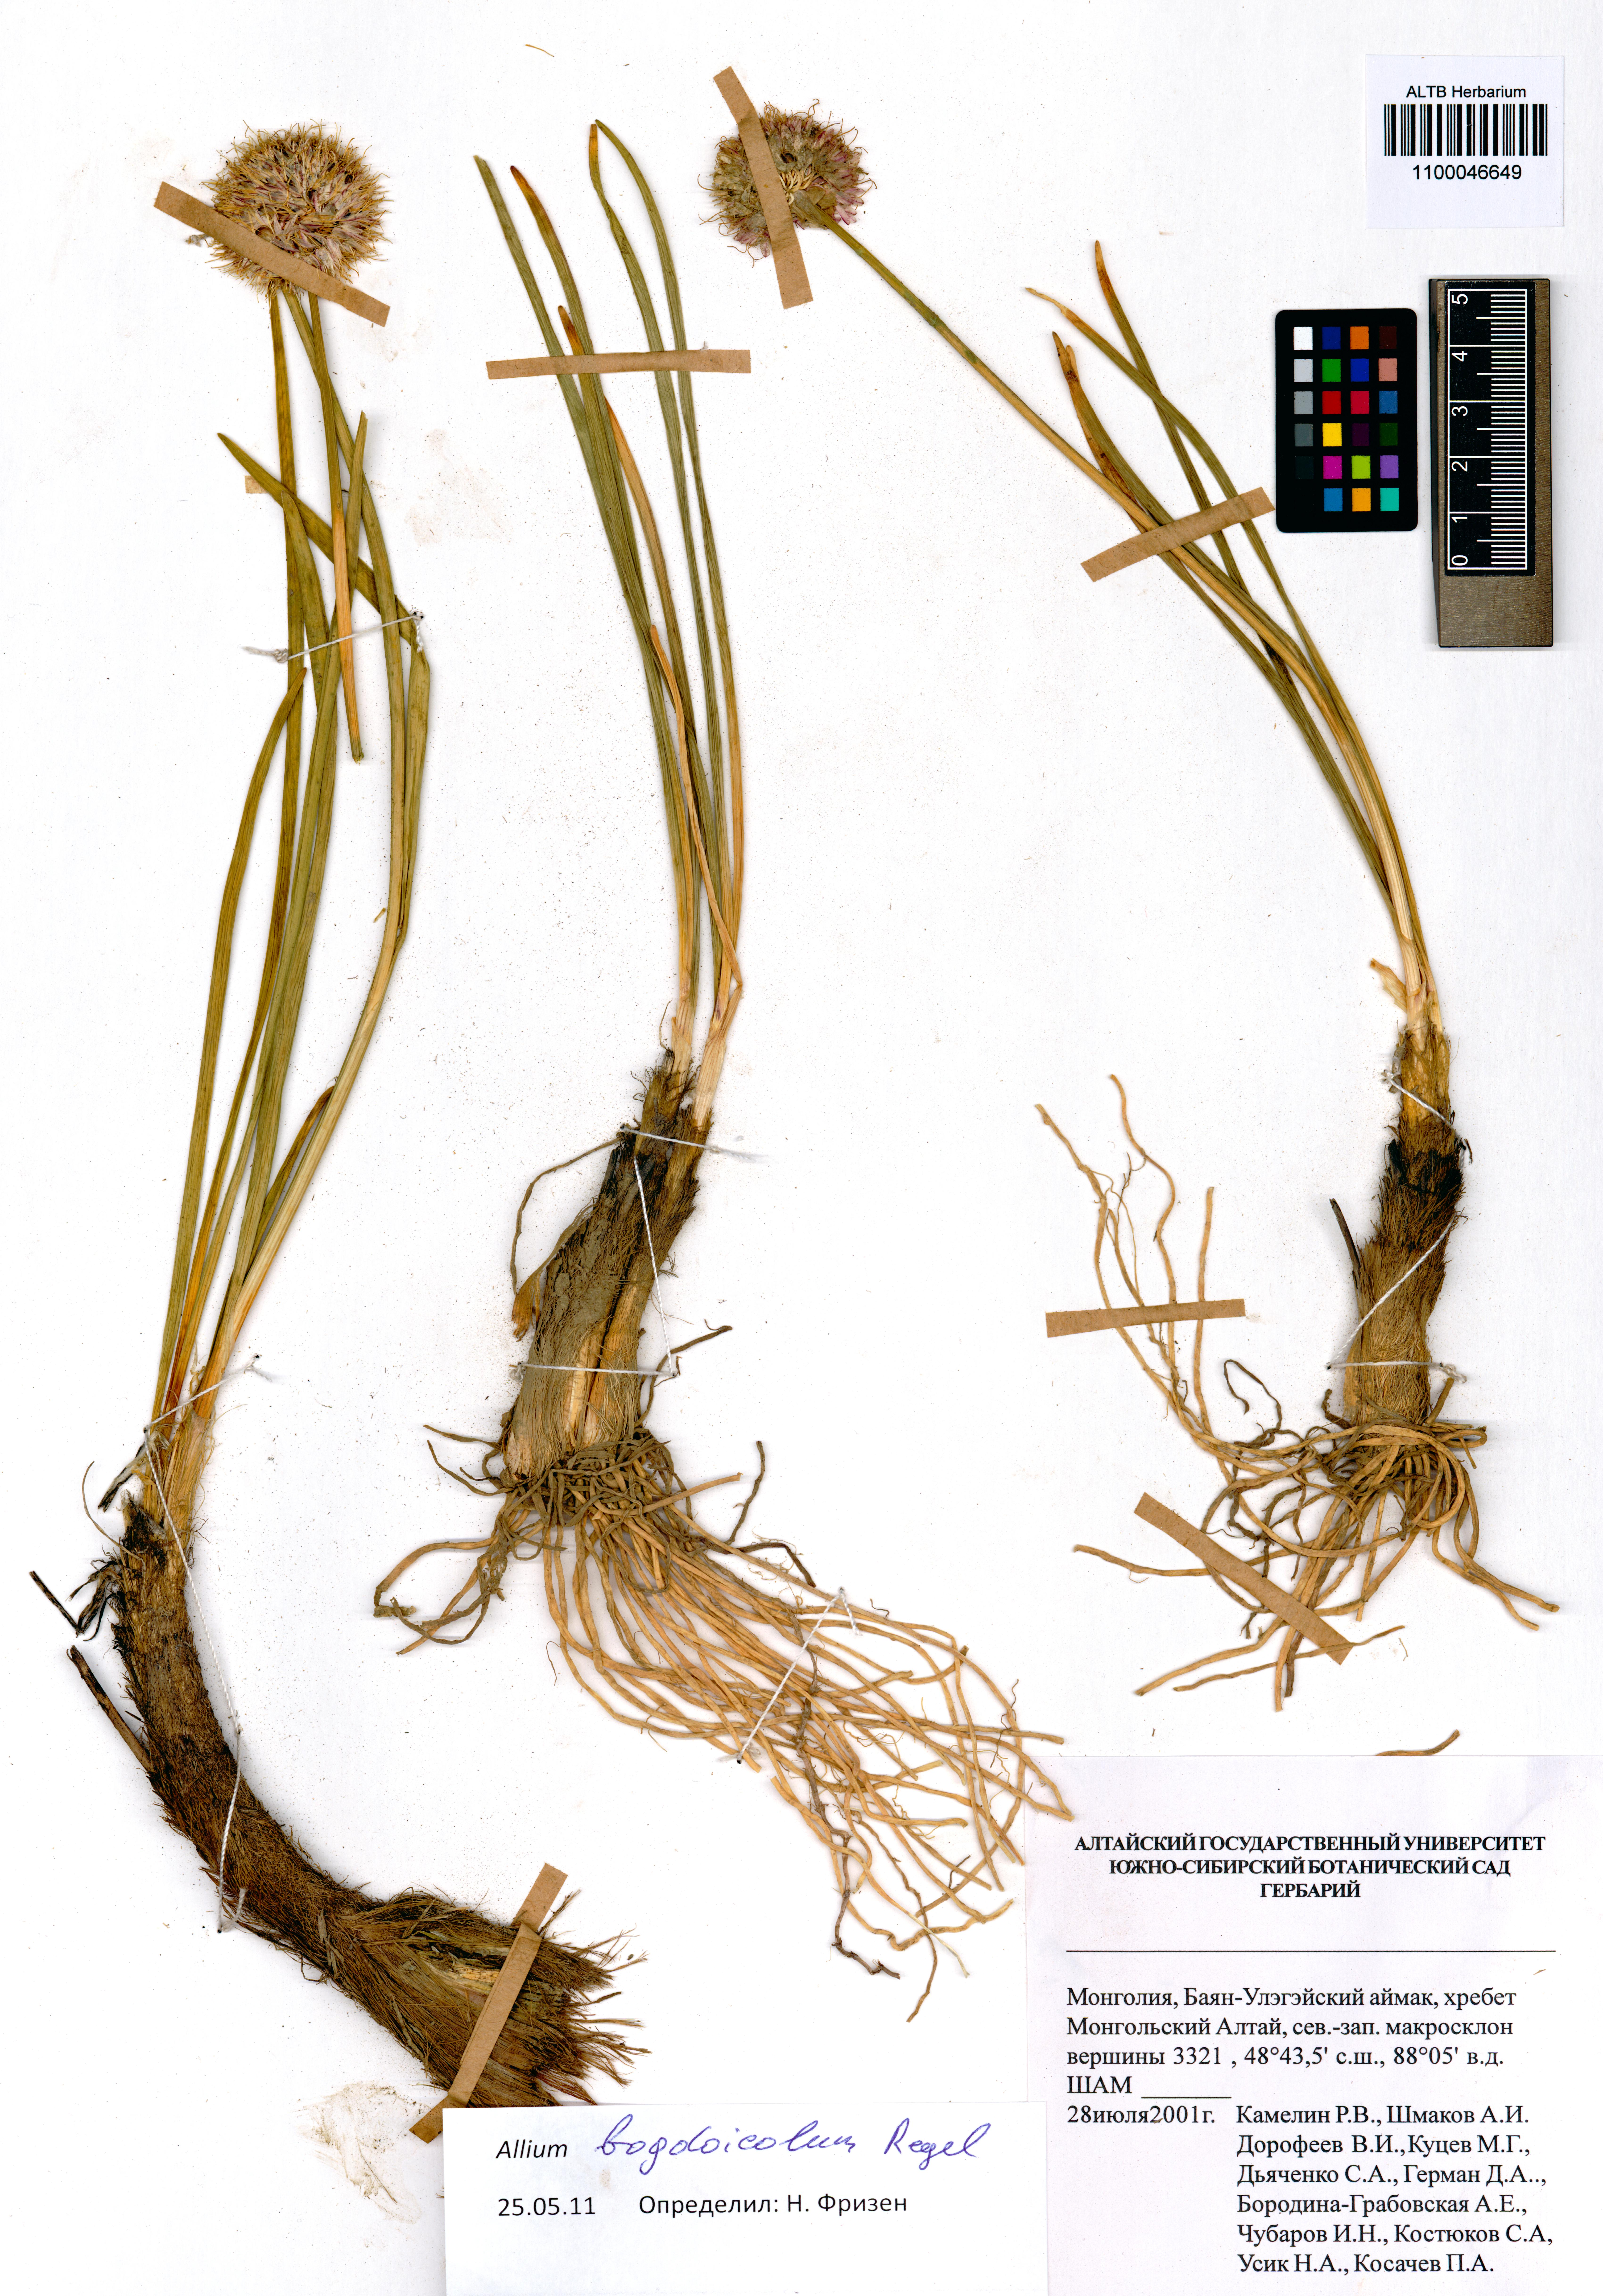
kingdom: Plantae
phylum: Tracheophyta
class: Liliopsida
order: Asparagales
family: Amaryllidaceae
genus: Allium
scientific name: Allium schrenkii
